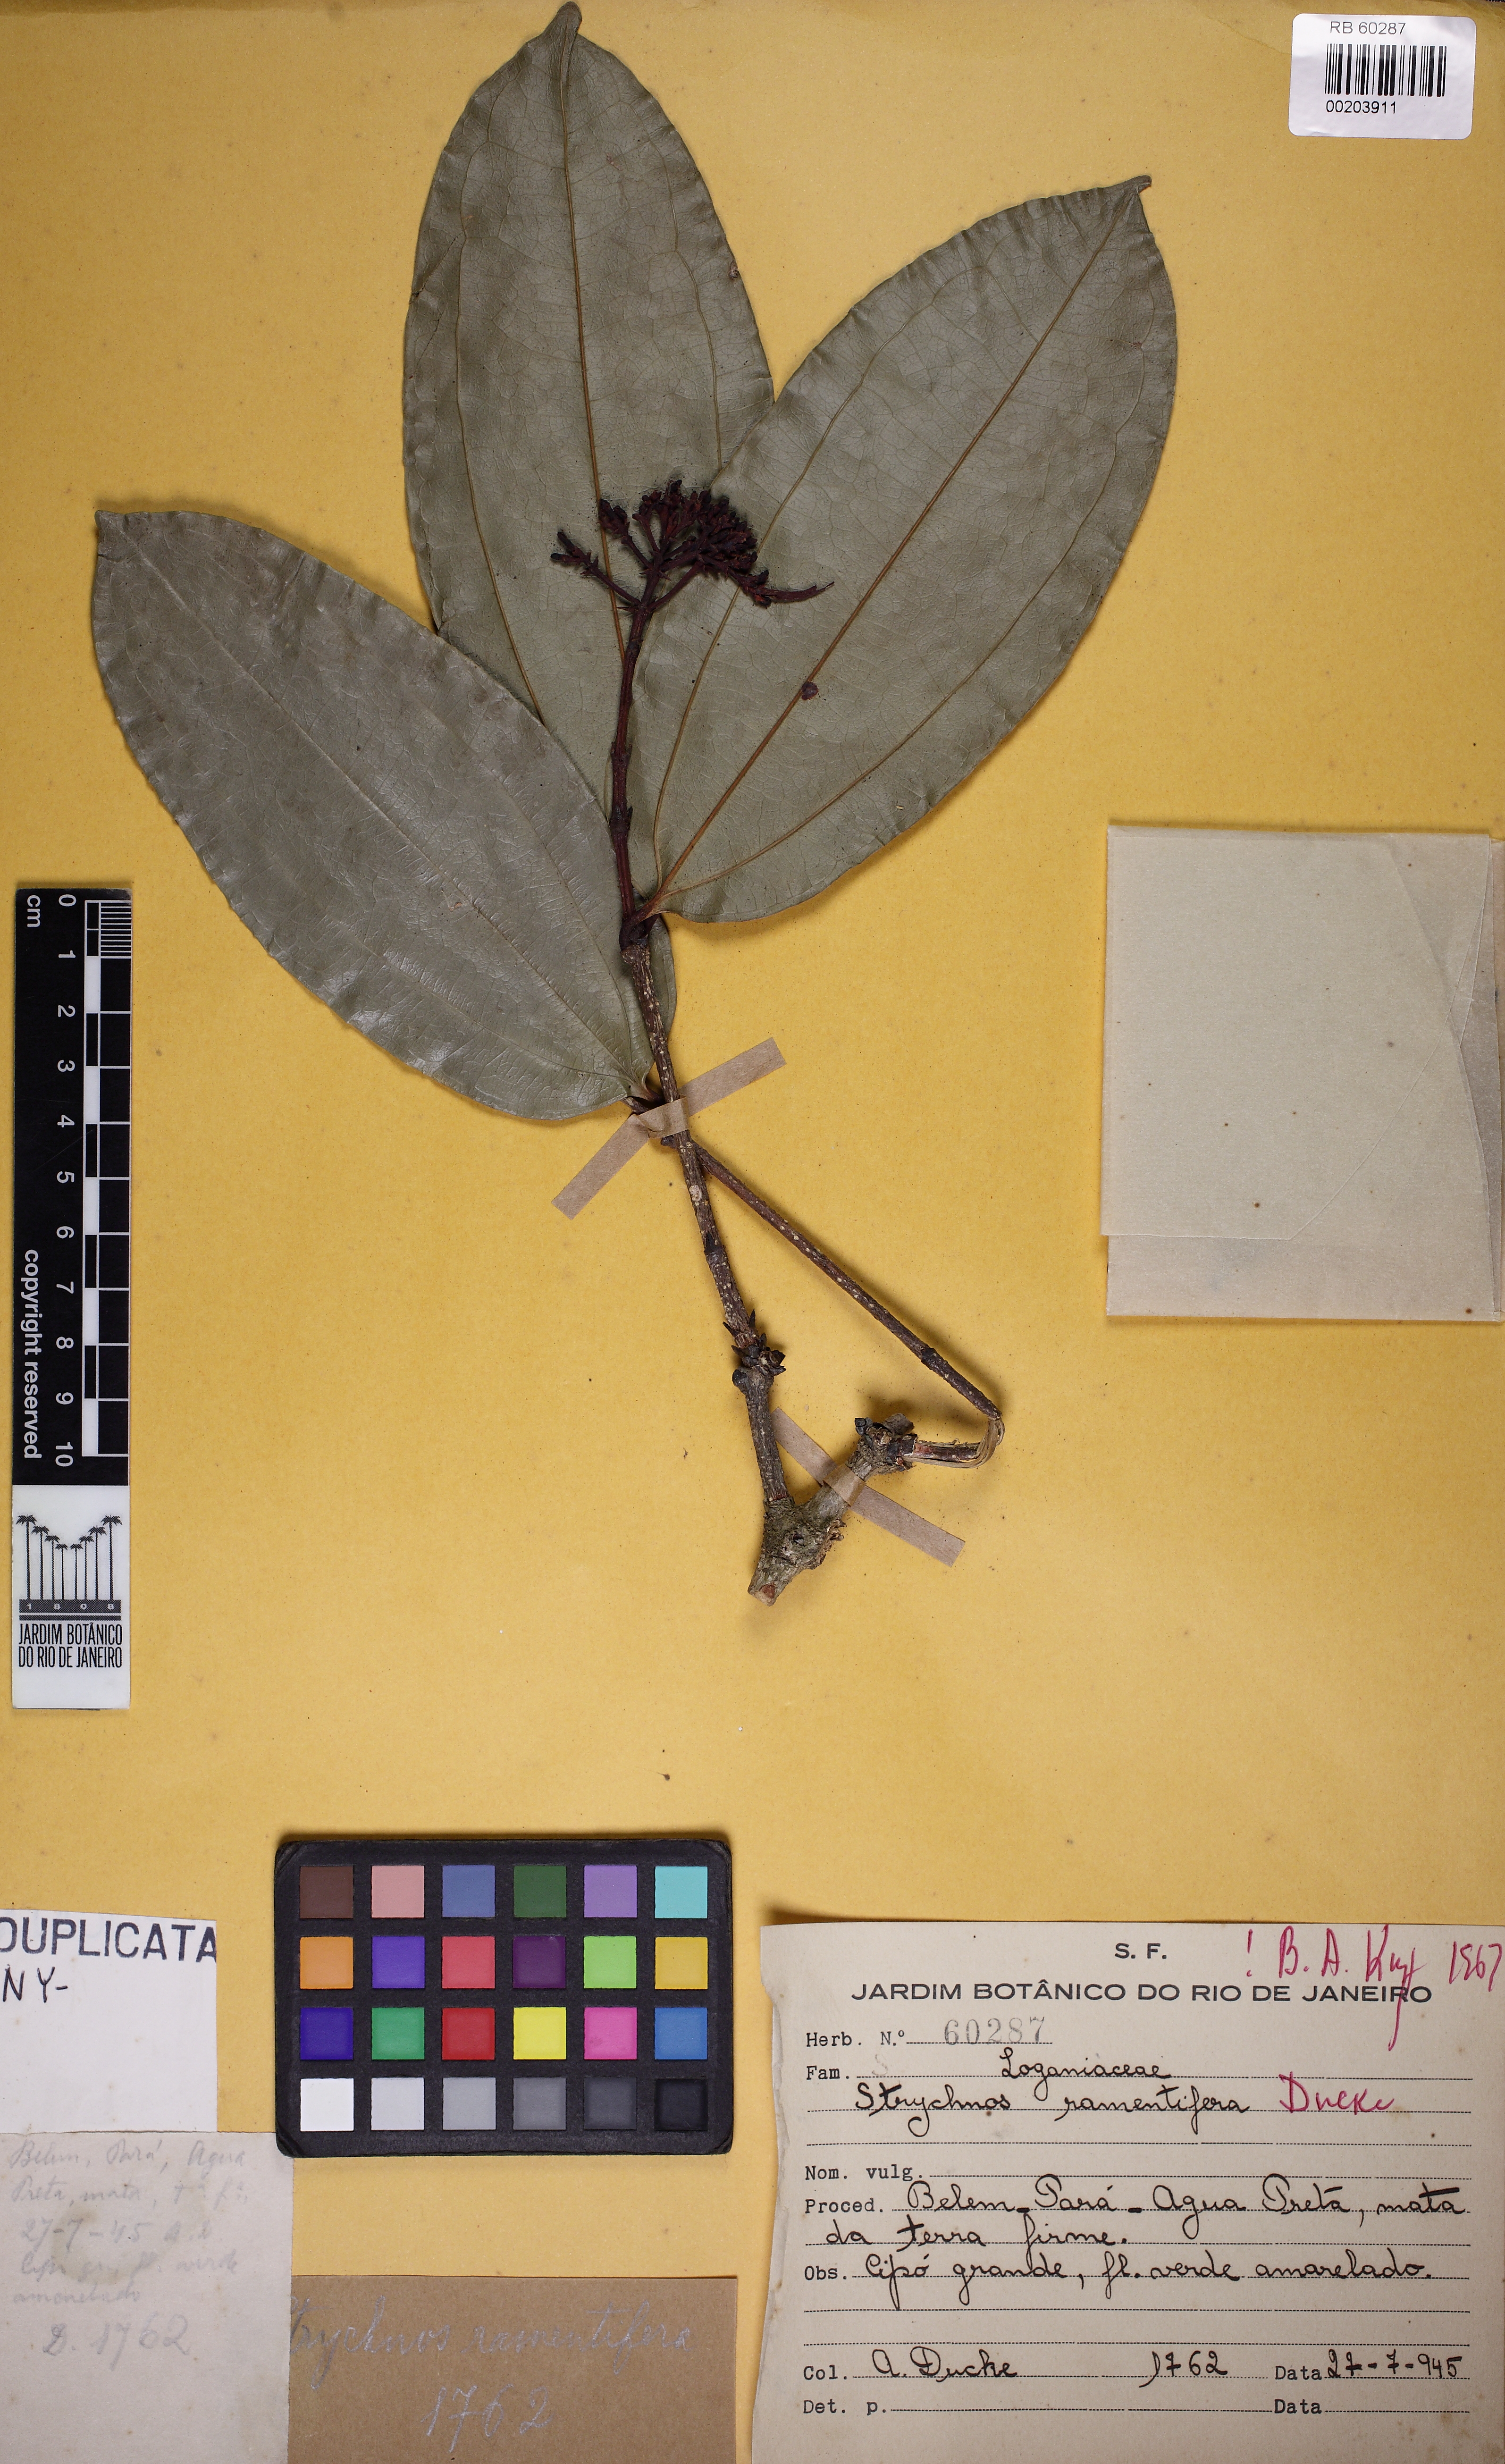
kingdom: Plantae
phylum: Tracheophyta
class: Magnoliopsida
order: Gentianales
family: Loganiaceae
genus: Strychnos
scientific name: Strychnos ramentifera
